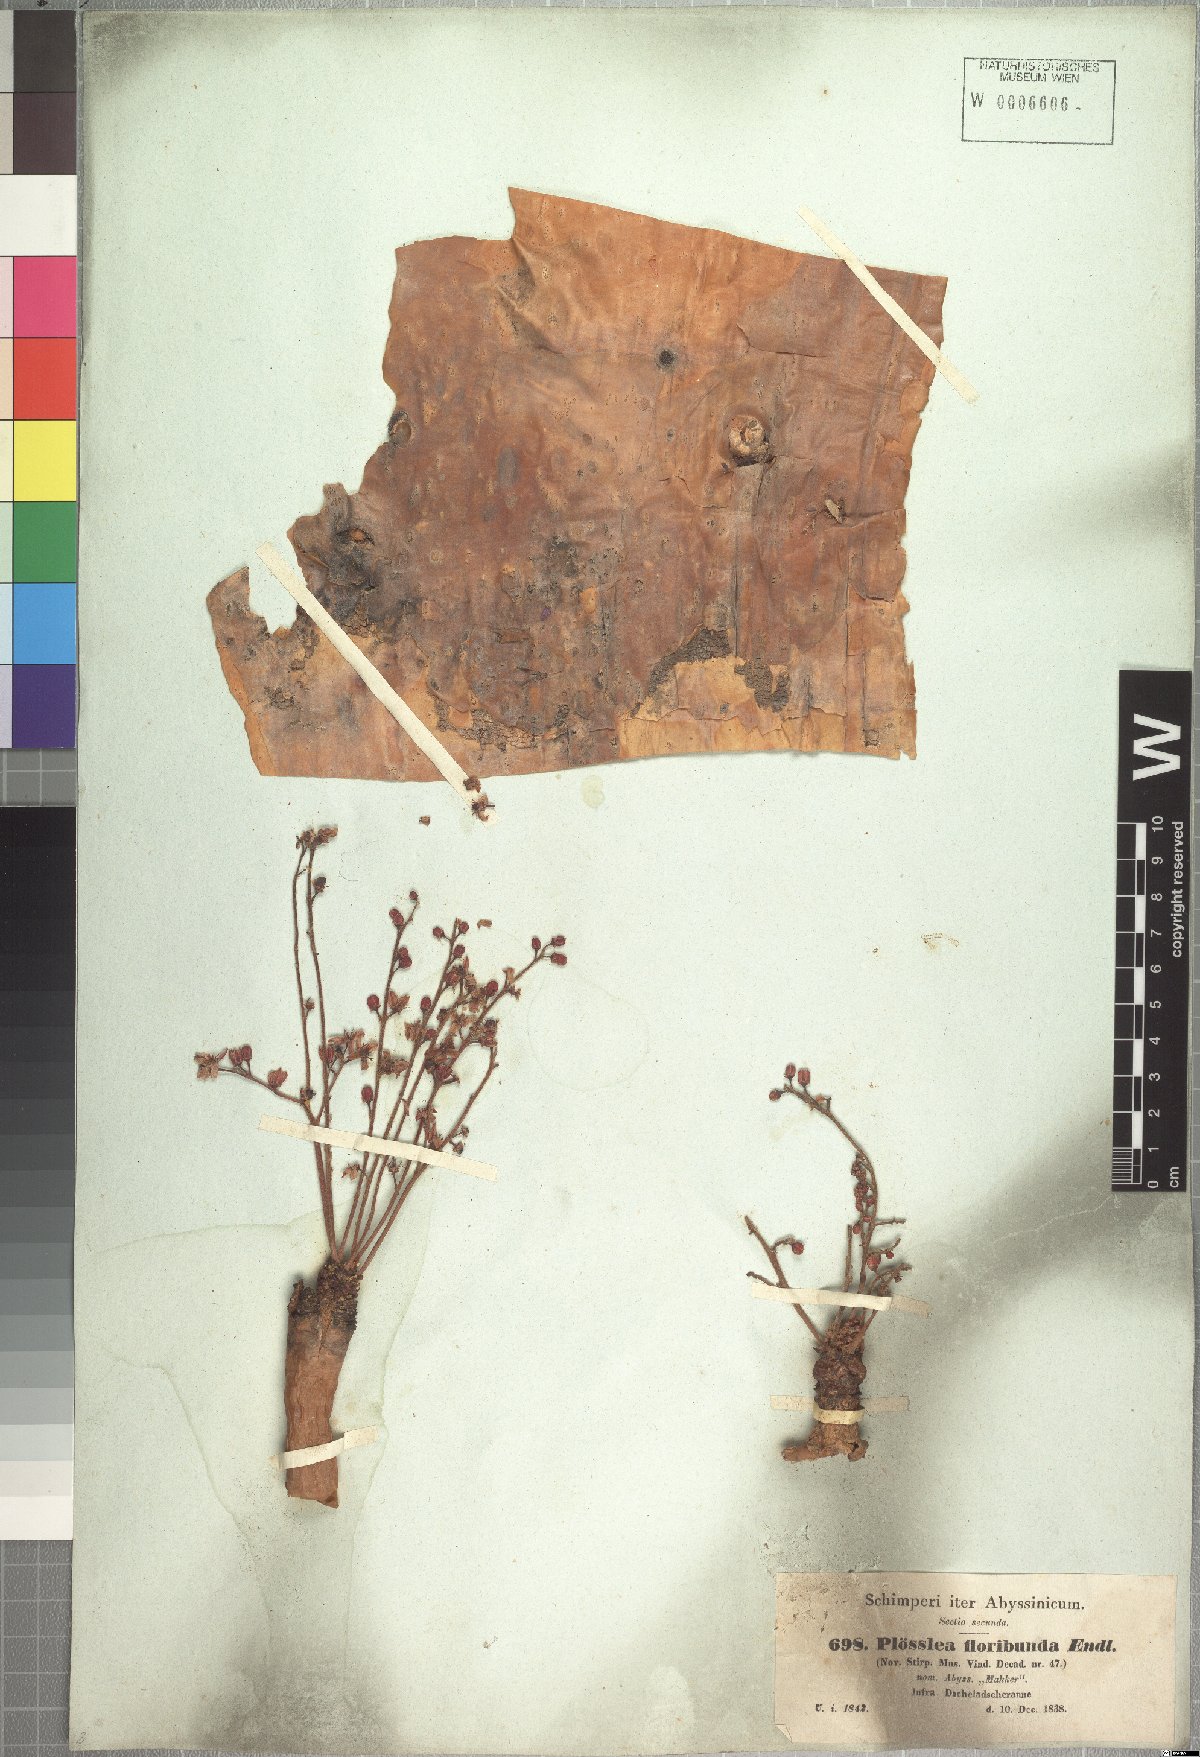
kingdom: Plantae
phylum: Tracheophyta
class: Magnoliopsida
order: Sapindales
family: Burseraceae
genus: Boswellia
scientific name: Boswellia papyrifera
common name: Sudanese frankincense
